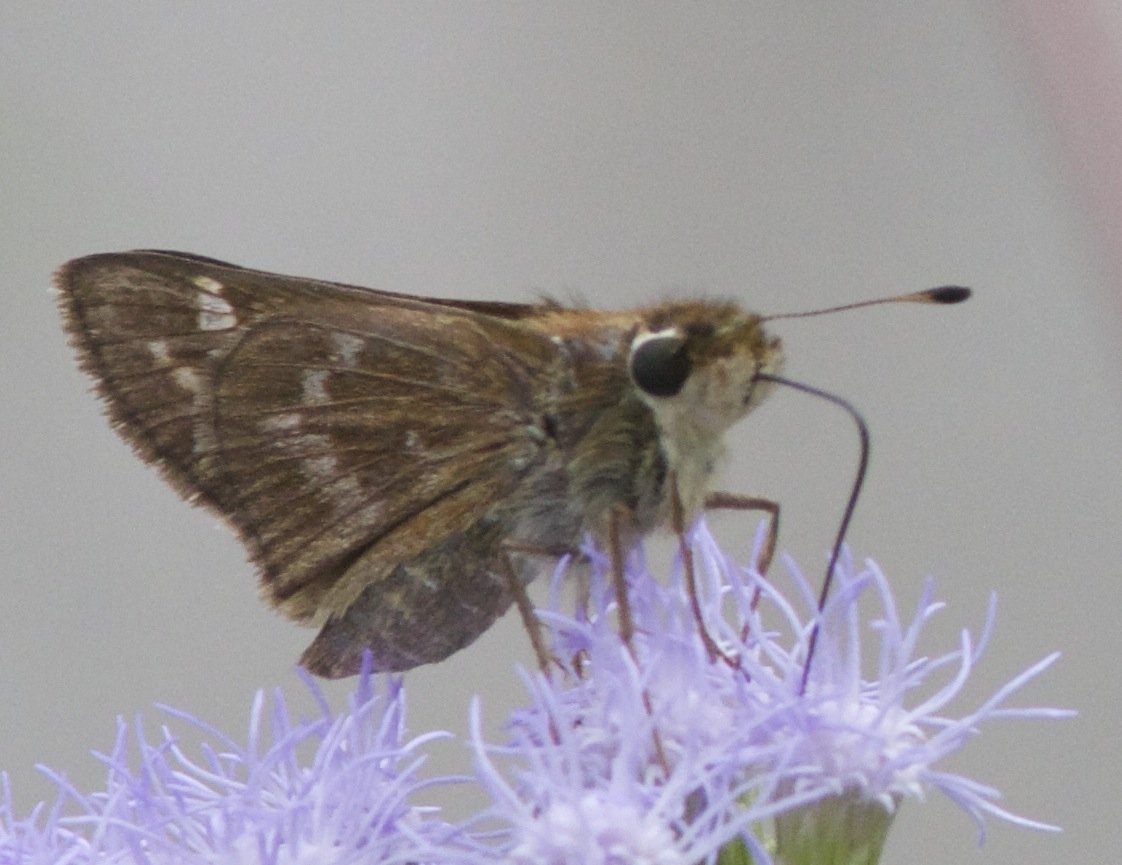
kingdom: Animalia
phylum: Arthropoda
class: Insecta
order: Lepidoptera
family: Hesperiidae
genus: Atalopedes
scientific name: Atalopedes campestris
